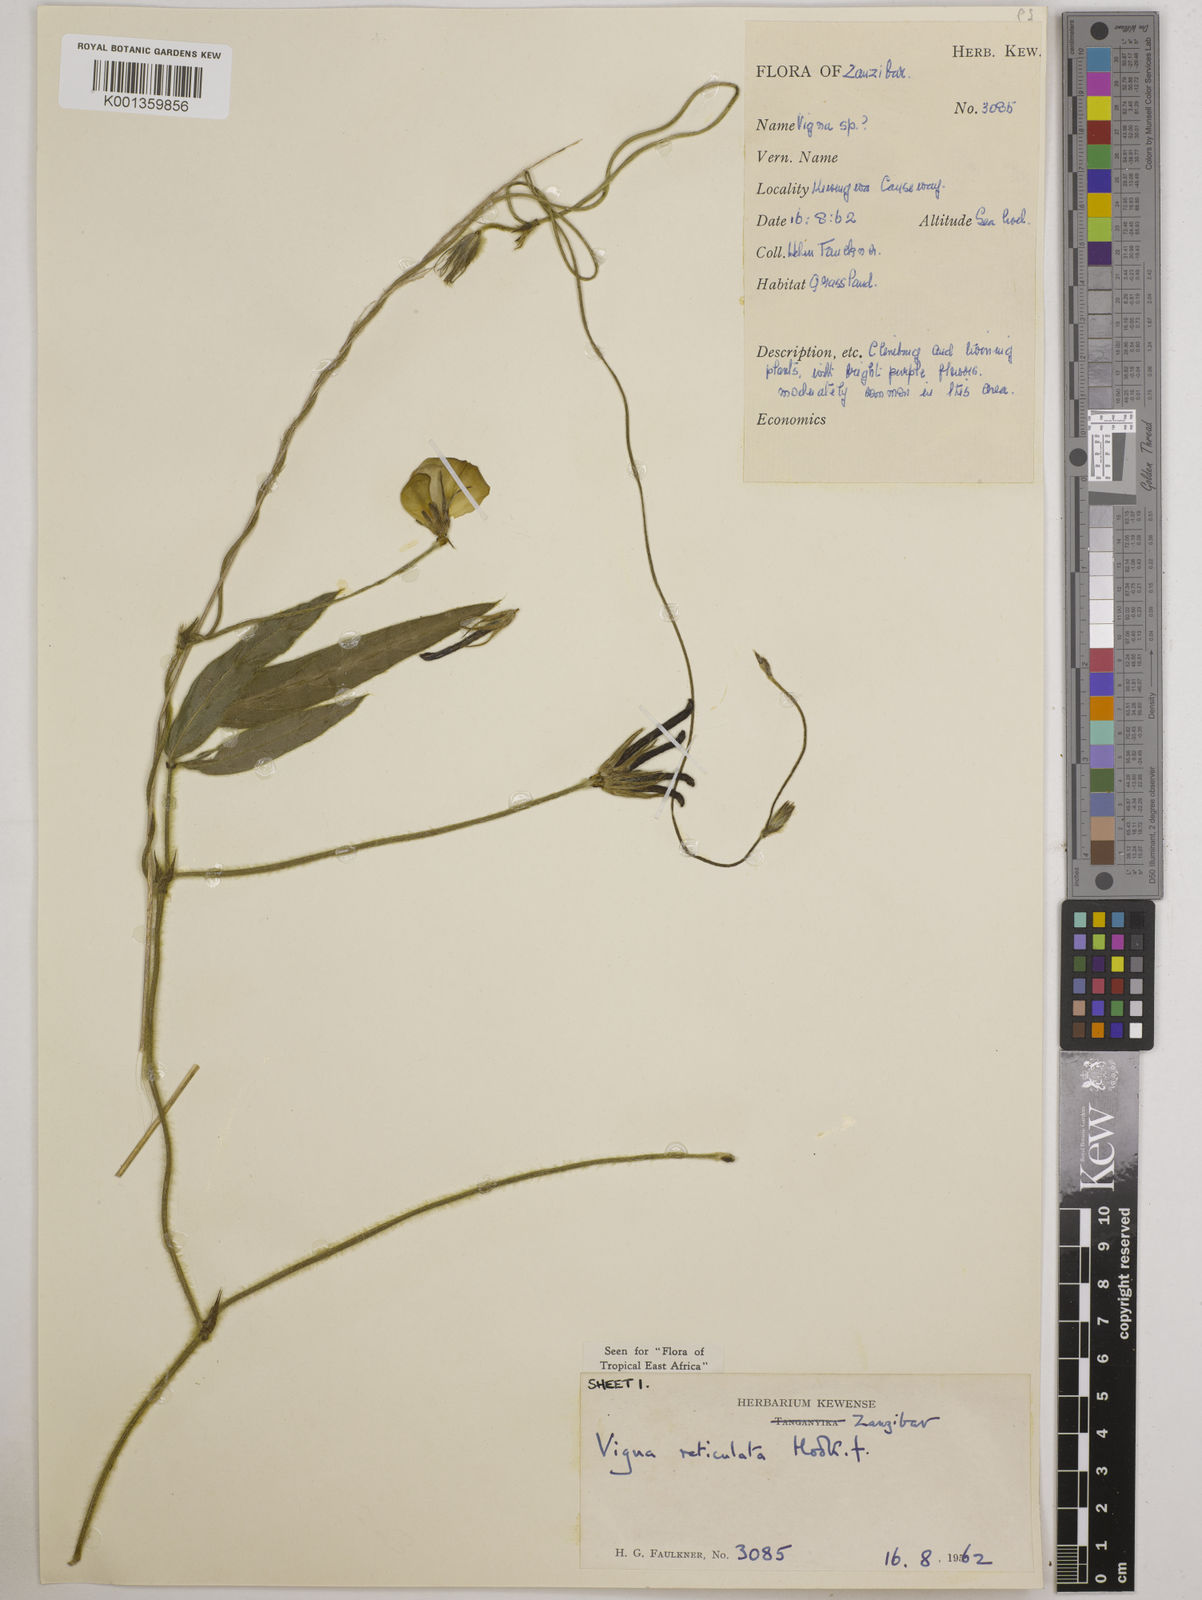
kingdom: Plantae
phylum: Tracheophyta
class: Magnoliopsida
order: Fabales
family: Fabaceae
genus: Vigna
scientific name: Vigna reticulata
